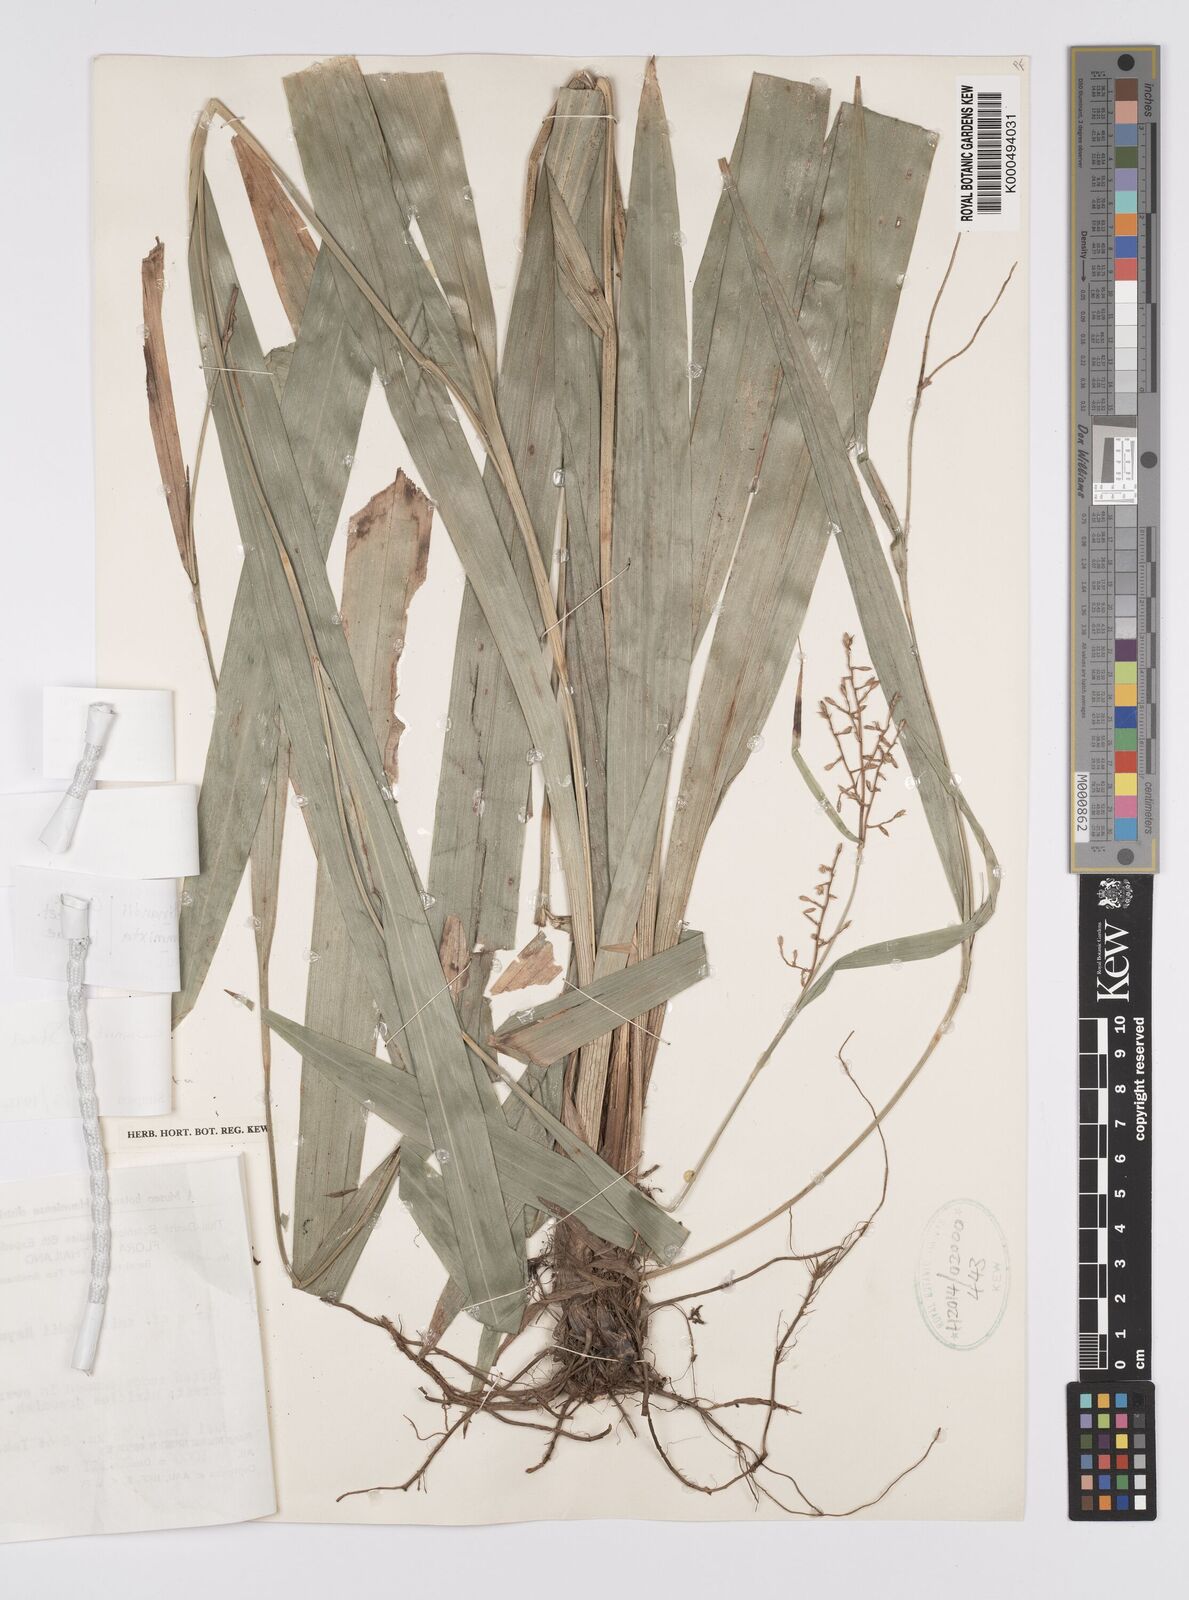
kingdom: Plantae
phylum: Tracheophyta
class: Liliopsida
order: Poales
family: Cyperaceae
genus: Carex
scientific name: Carex
